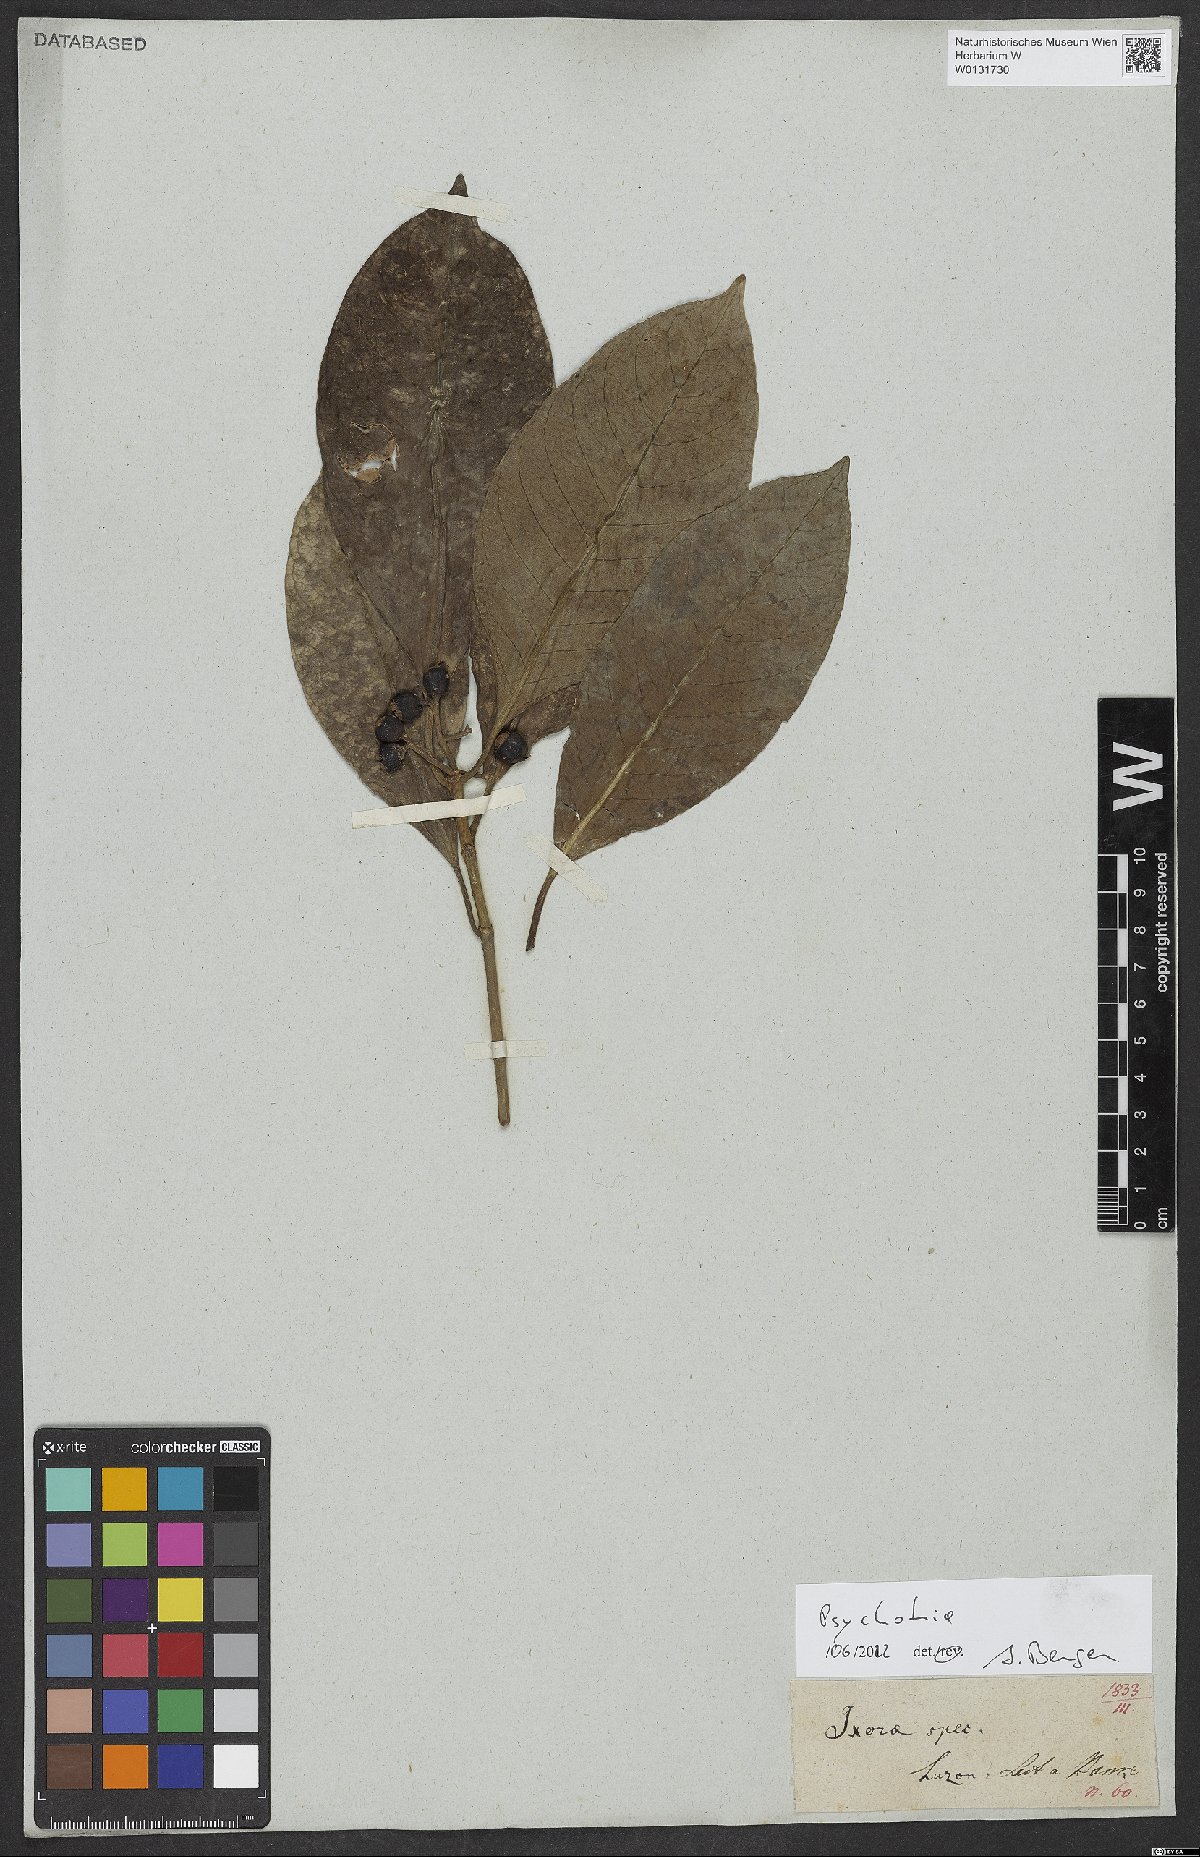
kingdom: Plantae
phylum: Tracheophyta
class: Magnoliopsida
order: Gentianales
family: Rubiaceae
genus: Psychotria
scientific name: Psychotria
